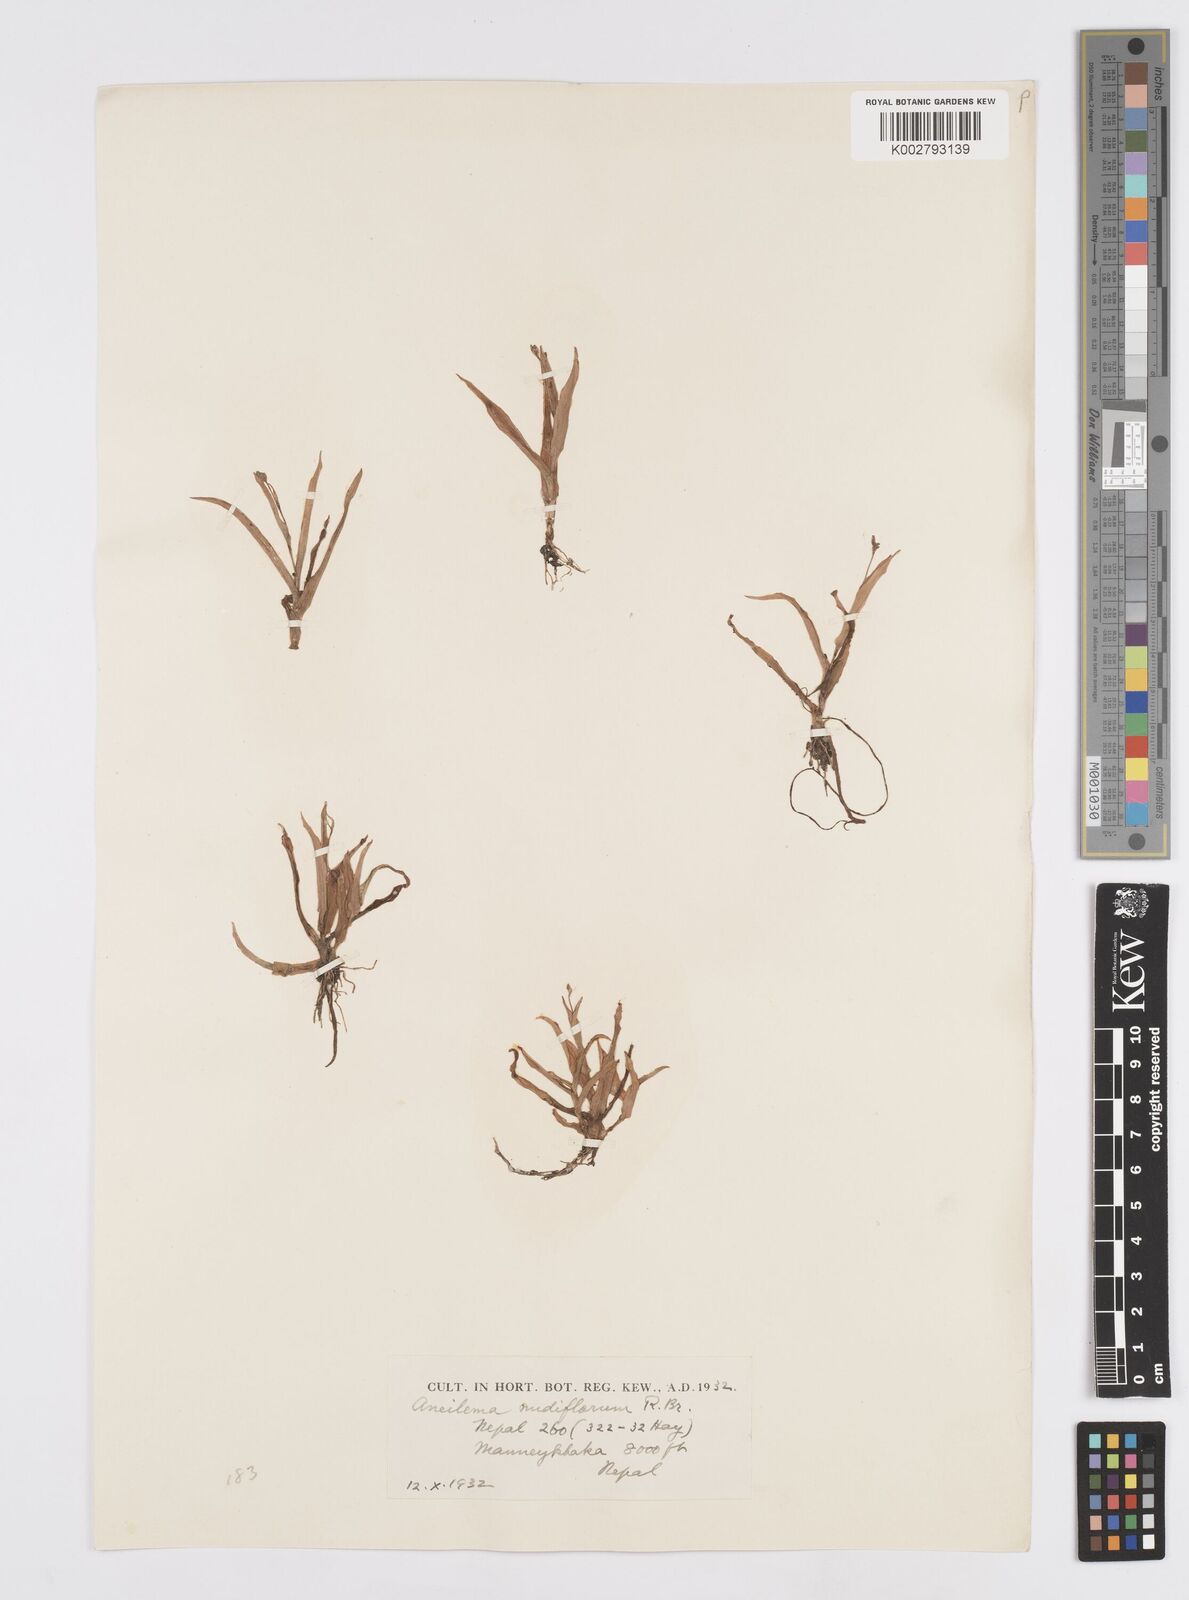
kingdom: Plantae
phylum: Tracheophyta
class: Liliopsida
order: Commelinales
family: Commelinaceae
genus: Murdannia
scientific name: Murdannia nudiflora
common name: Nakedstem dewflower
